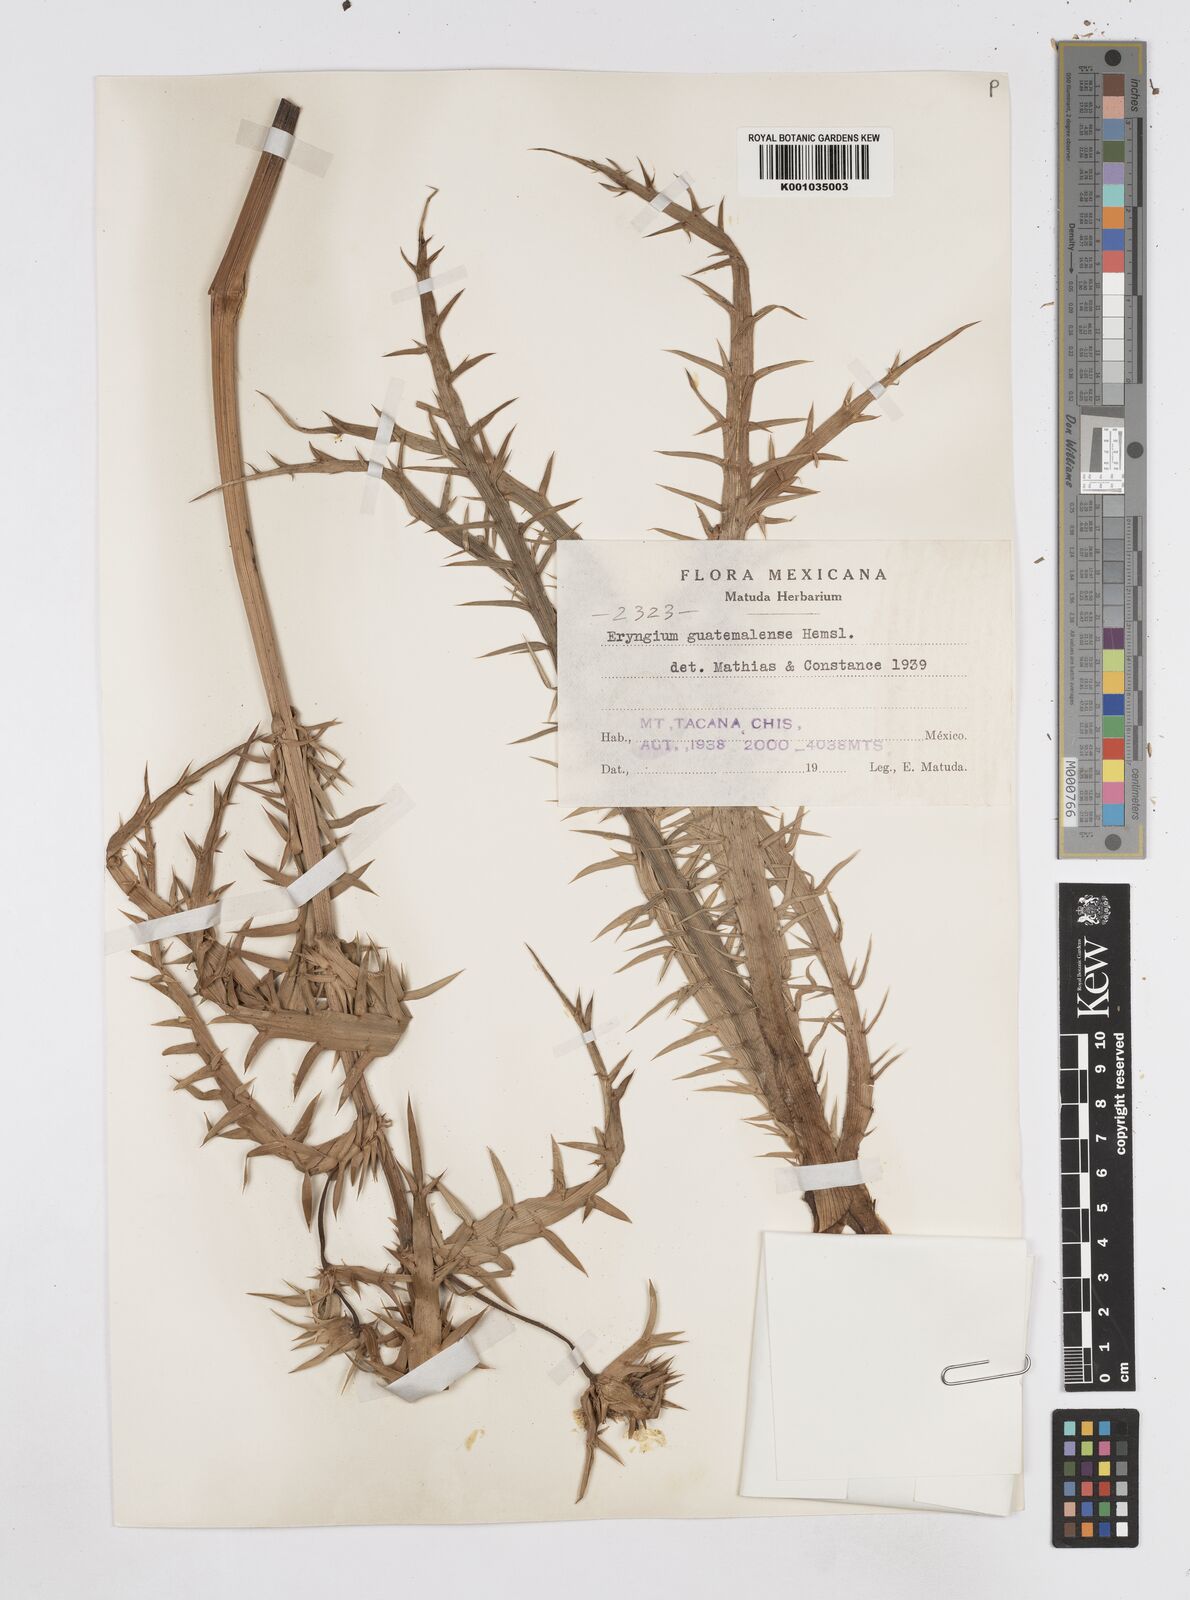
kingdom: Plantae
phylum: Tracheophyta
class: Magnoliopsida
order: Apiales
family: Apiaceae
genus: Eryngium
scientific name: Eryngium guatemalense
